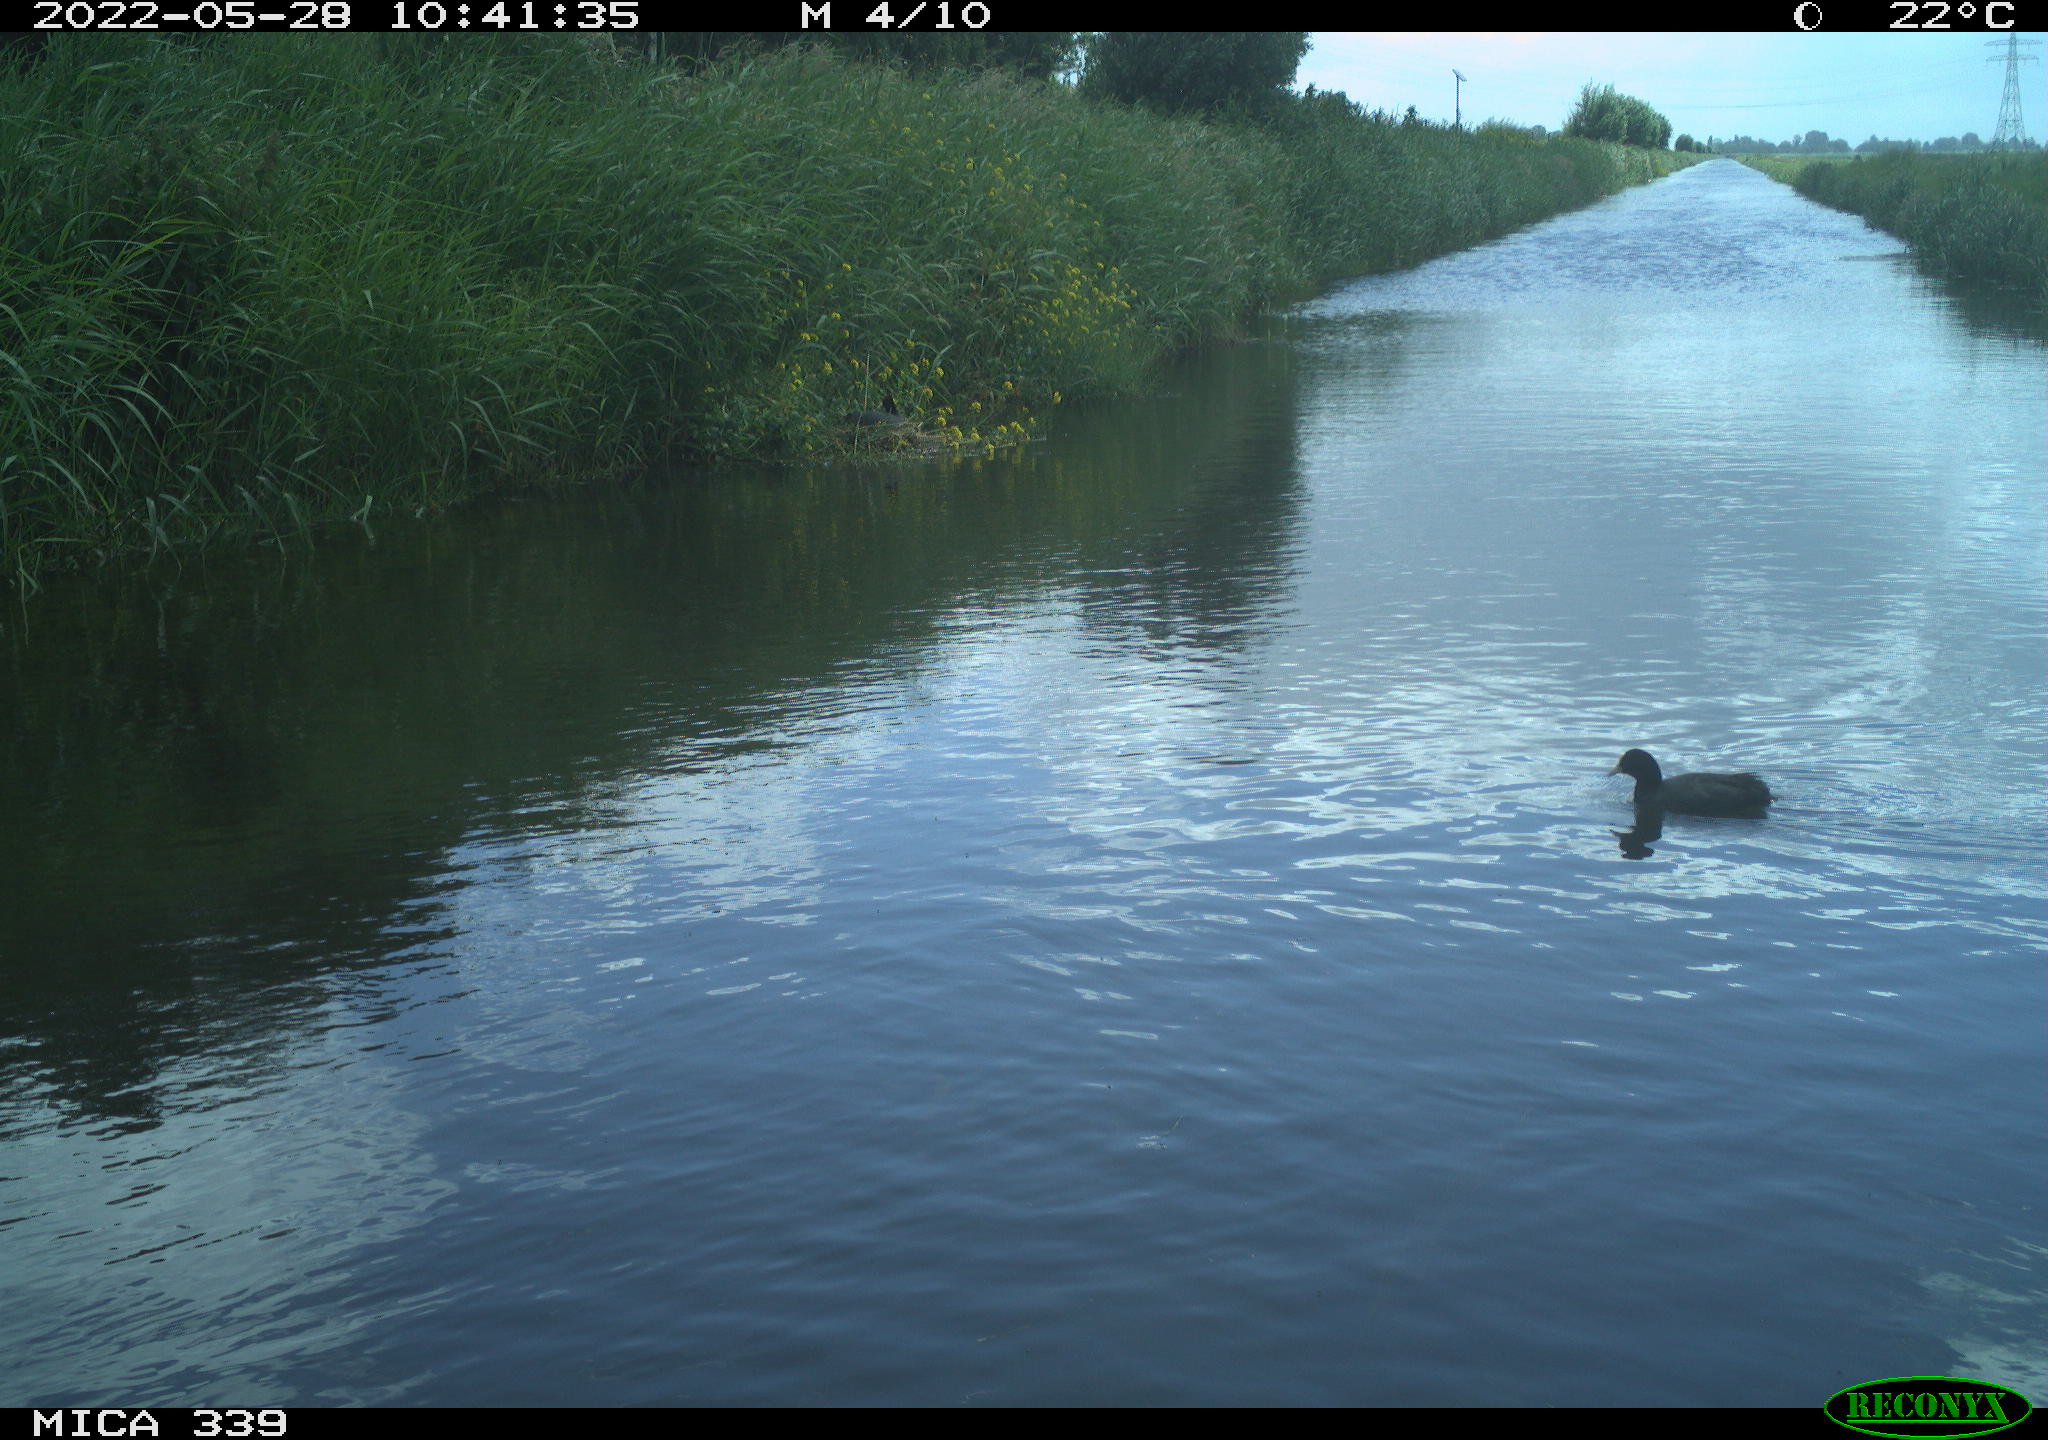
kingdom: Animalia
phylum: Chordata
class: Aves
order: Gruiformes
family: Rallidae
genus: Fulica
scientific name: Fulica atra
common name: Eurasian coot
